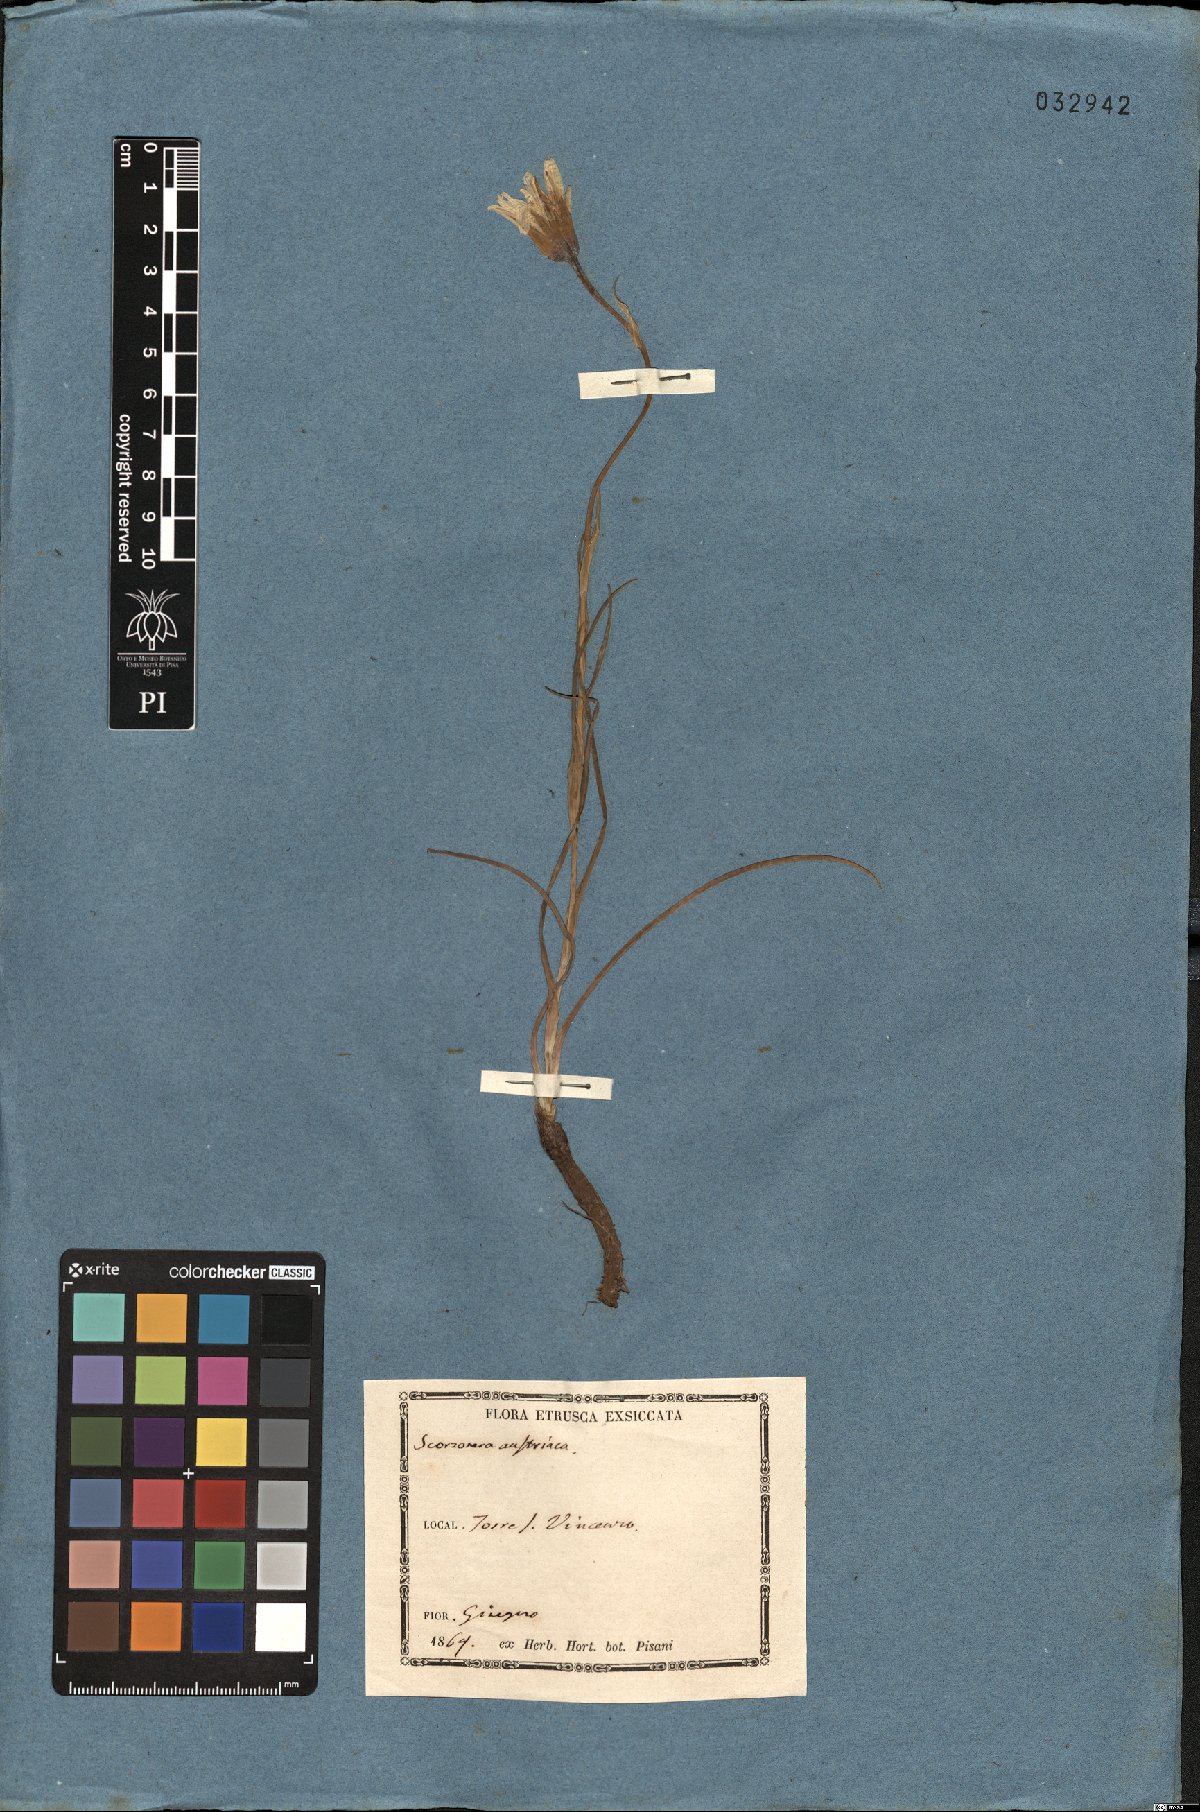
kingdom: Plantae
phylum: Tracheophyta
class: Magnoliopsida
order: Asterales
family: Asteraceae
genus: Takhtajaniantha
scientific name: Takhtajaniantha austriaca
